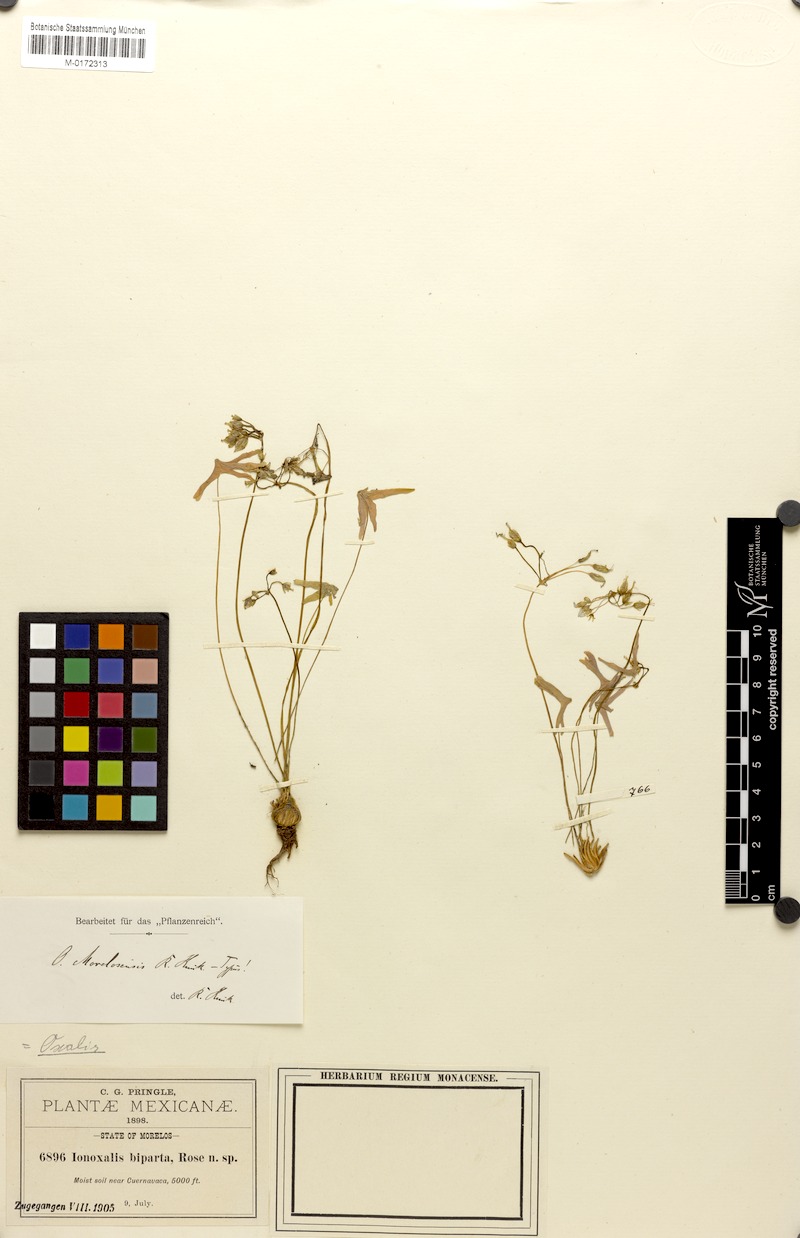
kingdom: Plantae
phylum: Tracheophyta
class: Magnoliopsida
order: Oxalidales
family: Oxalidaceae
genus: Oxalis
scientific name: Oxalis latifolia
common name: Garden pink-sorrel
